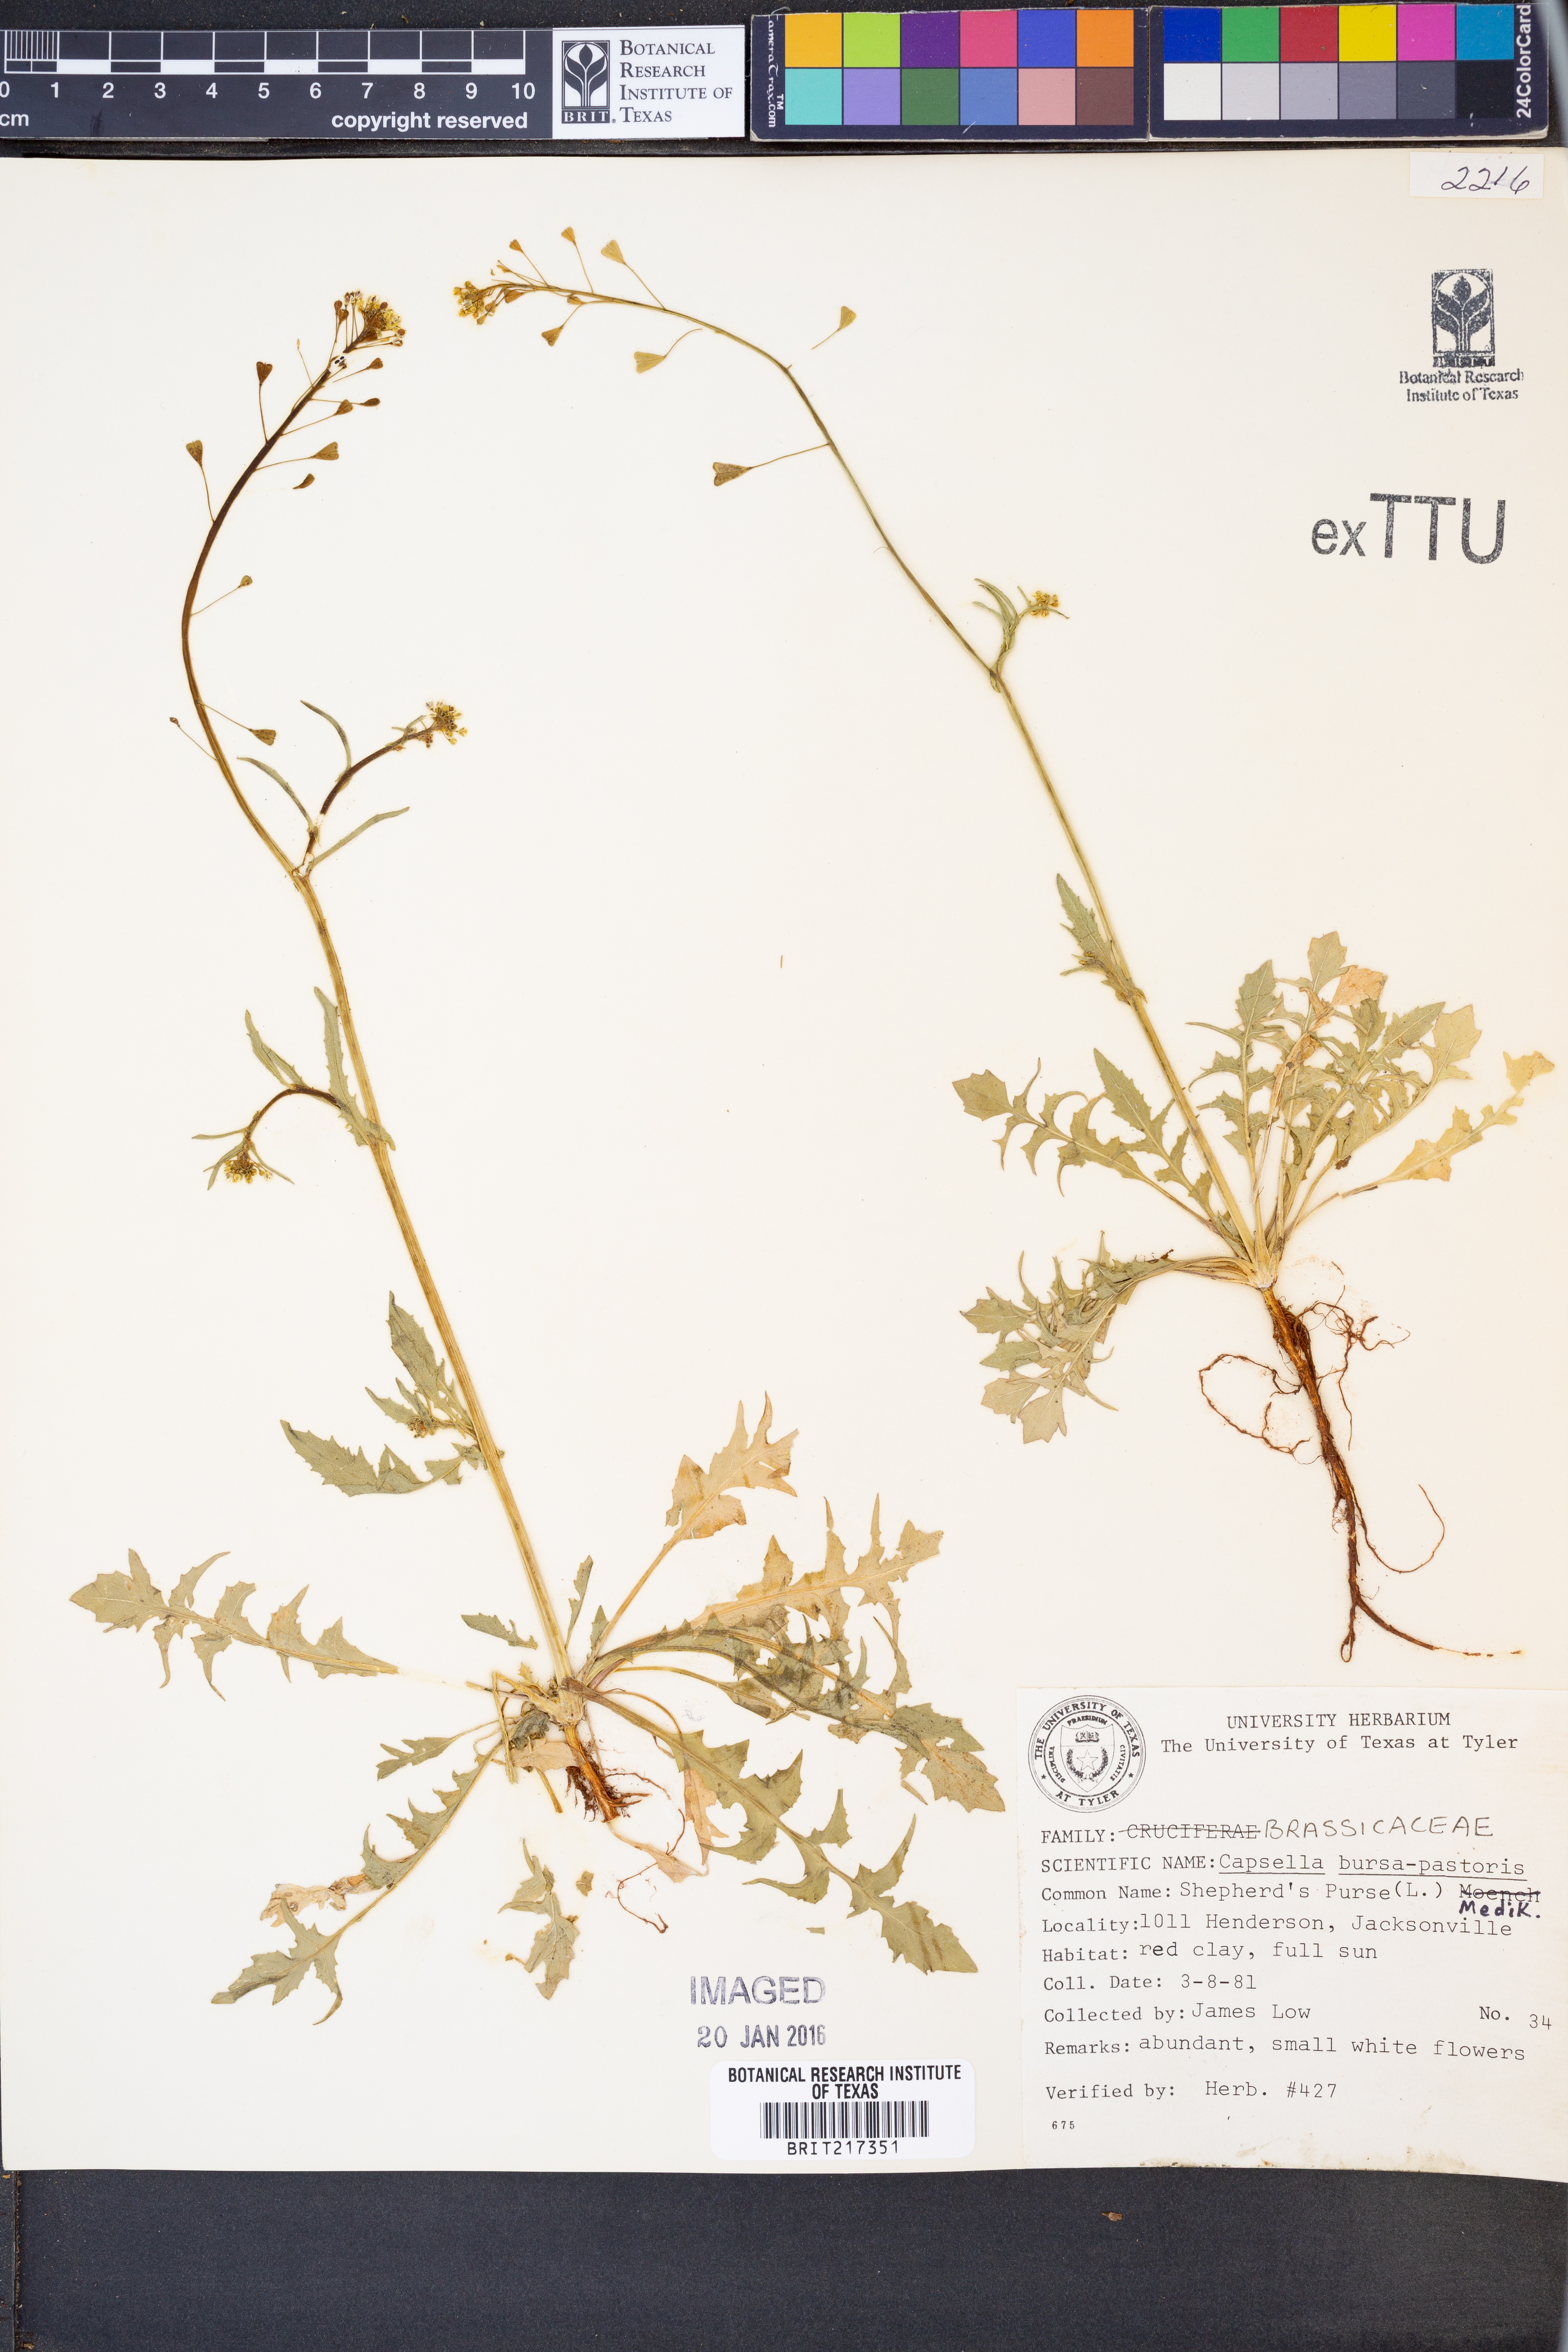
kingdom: Plantae
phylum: Tracheophyta
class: Magnoliopsida
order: Brassicales
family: Brassicaceae
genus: Capsella
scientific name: Capsella bursa-pastoris
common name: Shepherd's purse
